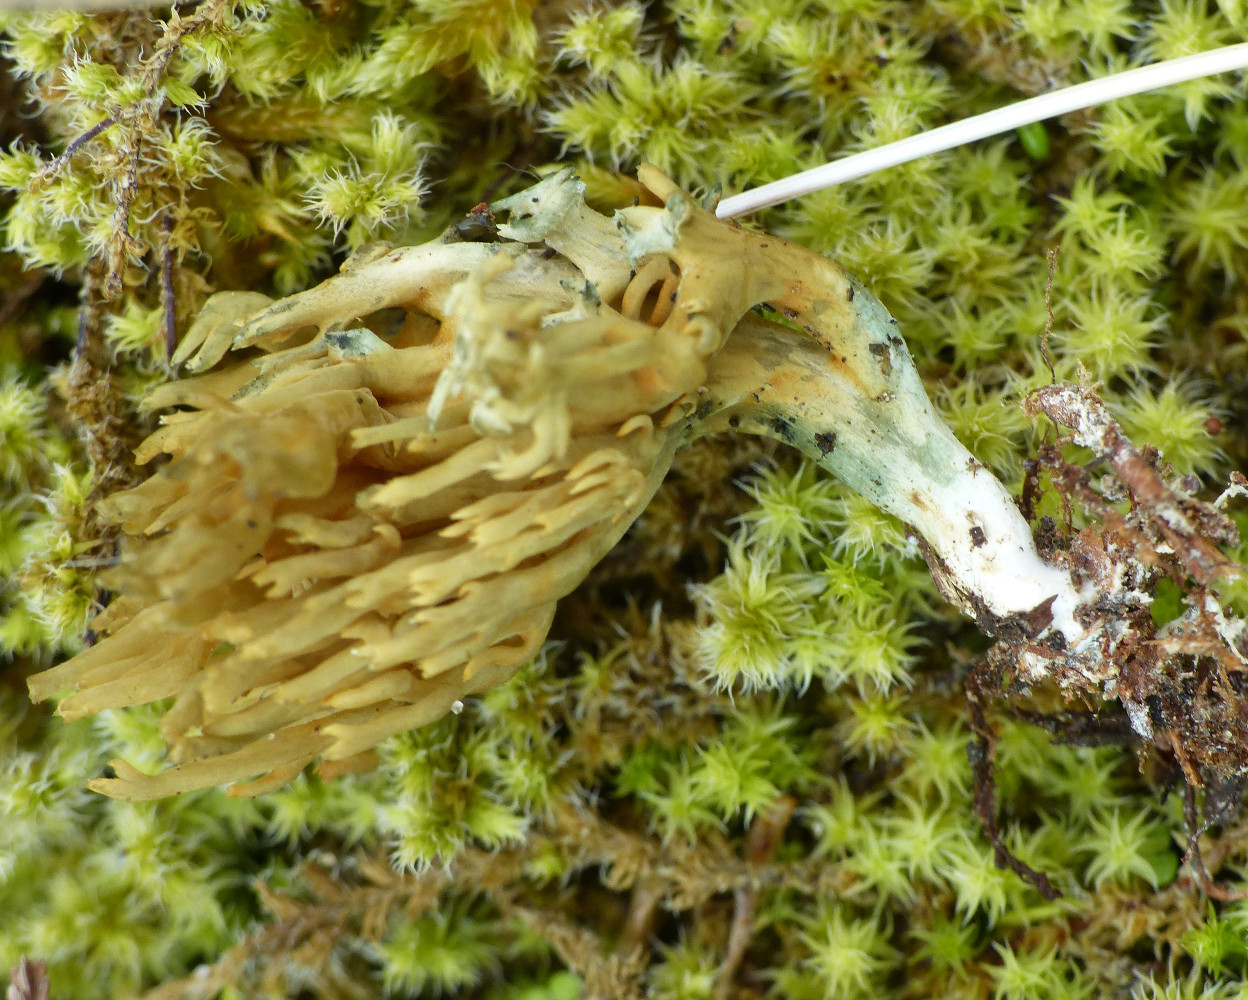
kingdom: Fungi
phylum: Basidiomycota
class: Agaricomycetes
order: Gomphales
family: Gomphaceae
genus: Phaeoclavulina
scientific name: Phaeoclavulina abietina
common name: gulgrøn koralsvamp
